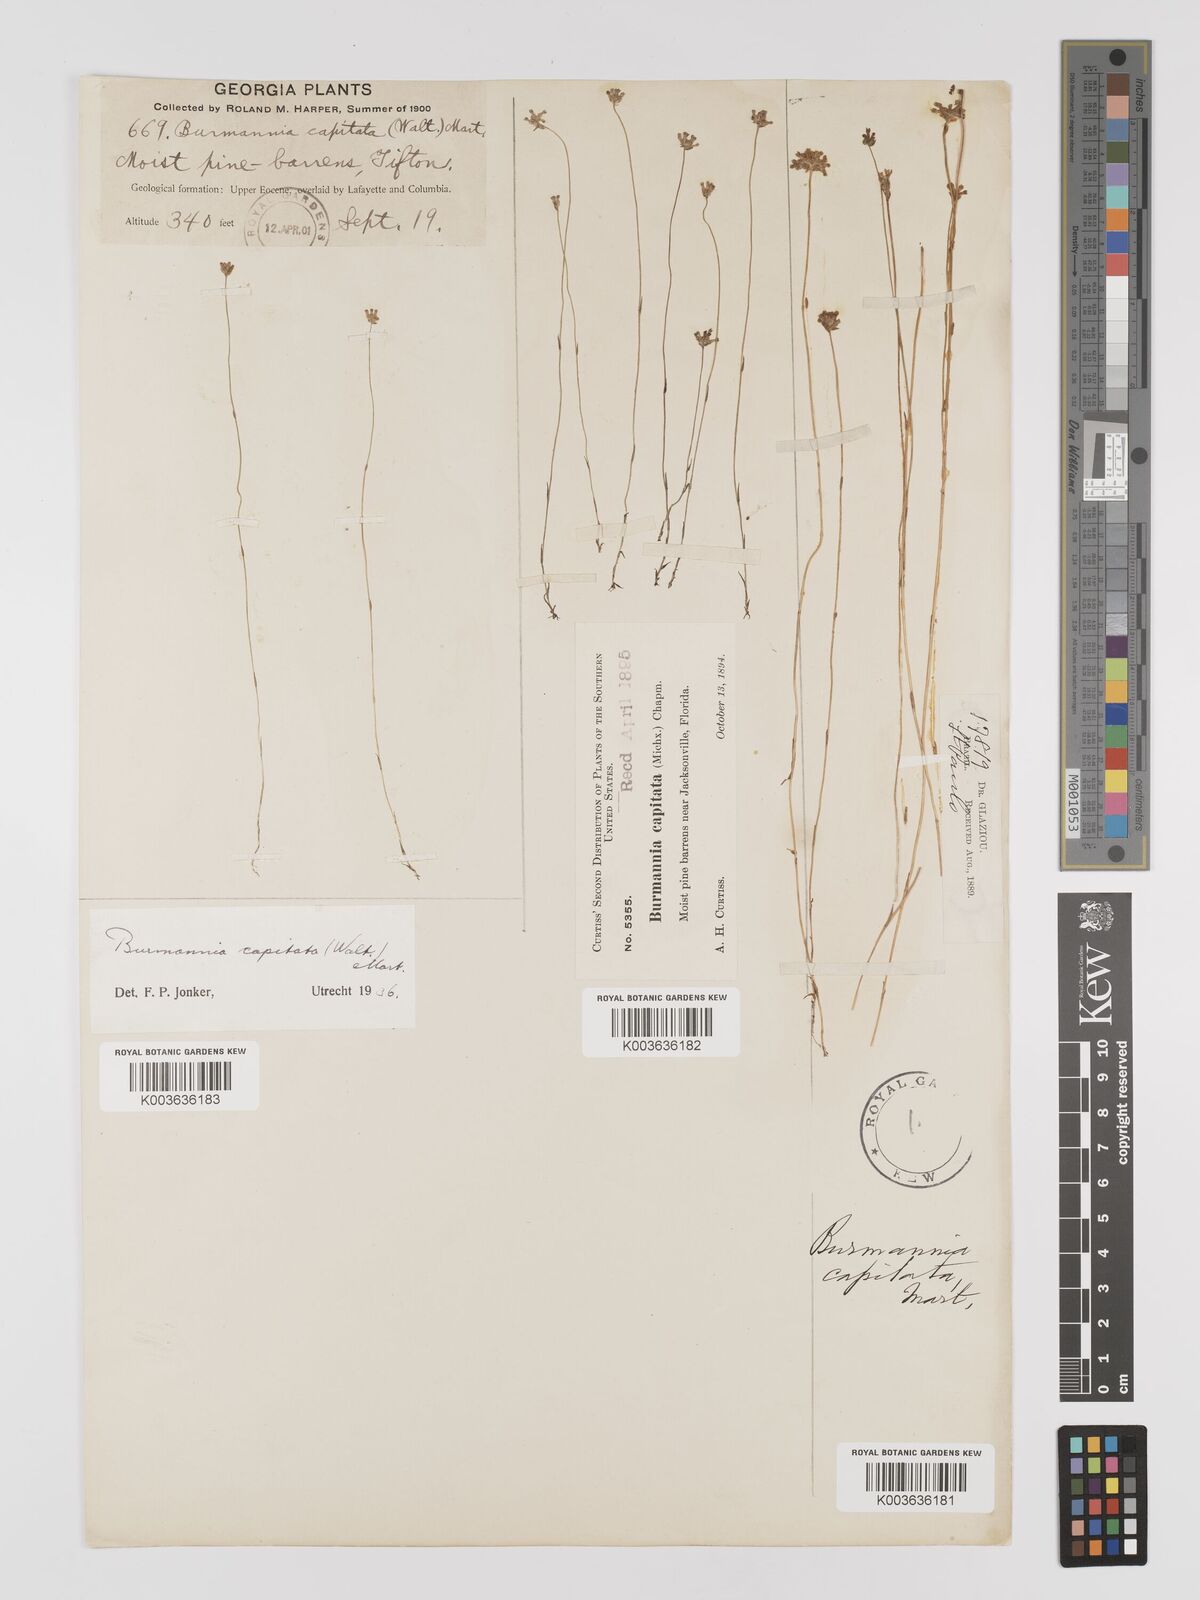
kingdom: Plantae
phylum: Tracheophyta
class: Liliopsida
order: Dioscoreales
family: Burmanniaceae
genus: Burmannia
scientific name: Burmannia capitata
